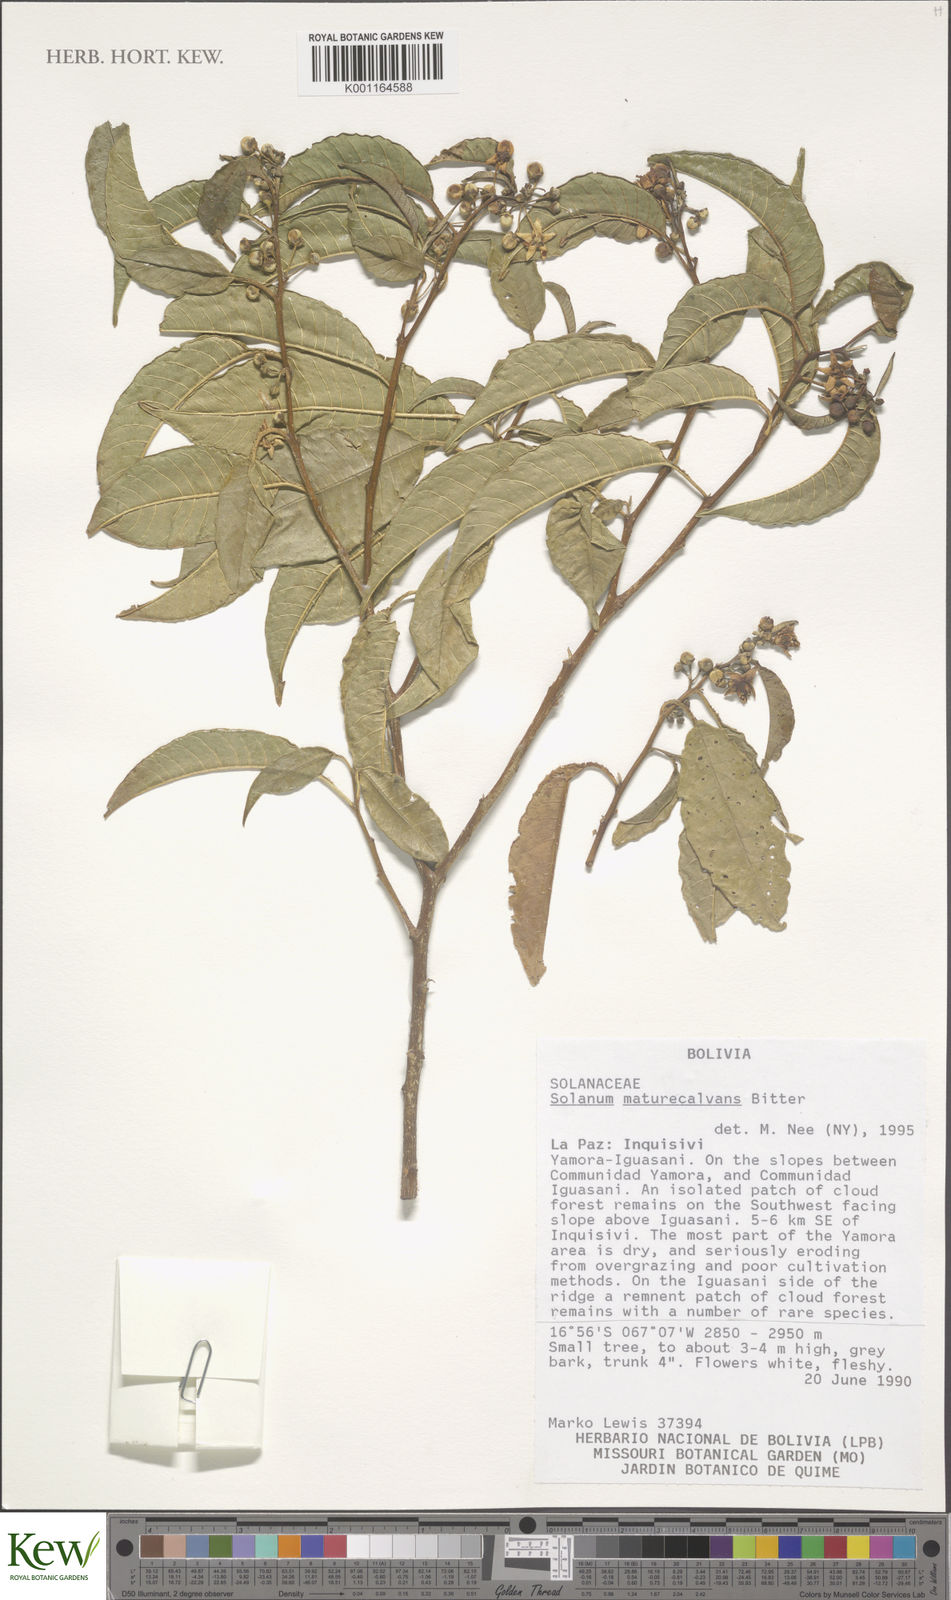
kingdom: Plantae
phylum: Tracheophyta
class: Magnoliopsida
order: Solanales
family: Solanaceae
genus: Solanum
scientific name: Solanum maturecalvans
